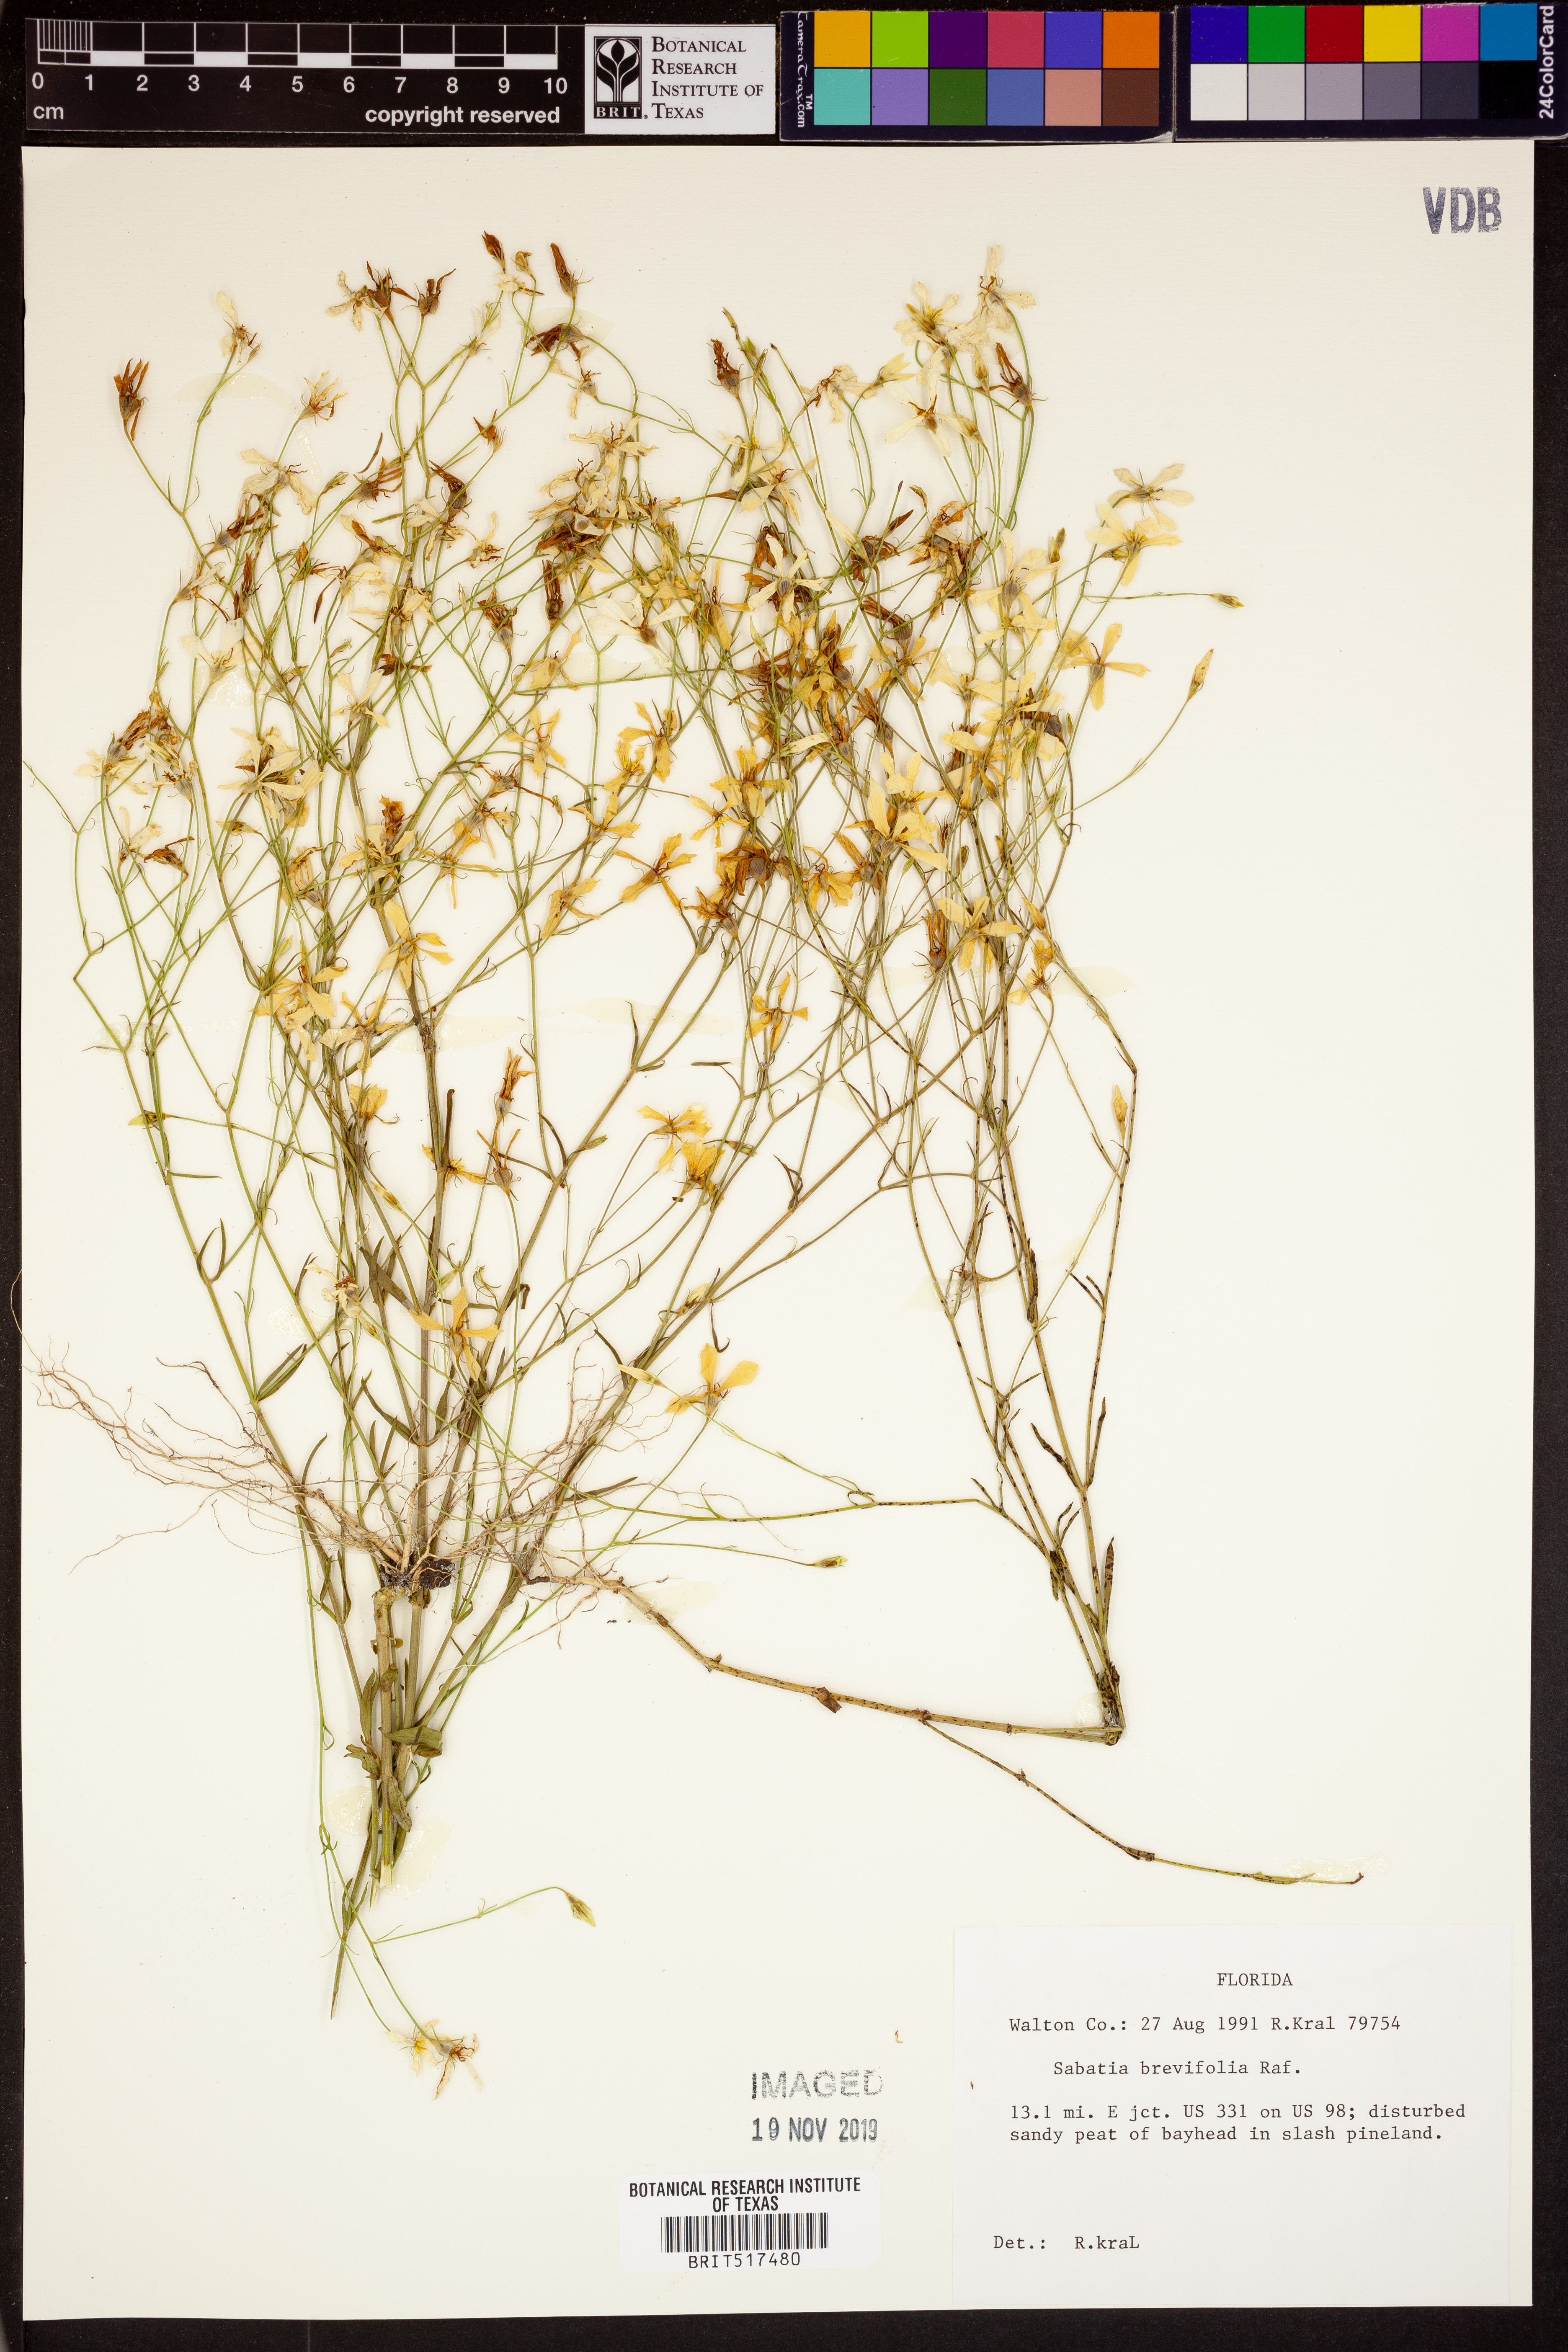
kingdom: Plantae
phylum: Tracheophyta
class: Magnoliopsida
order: Gentianales
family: Gentianaceae
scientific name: Gentianaceae
